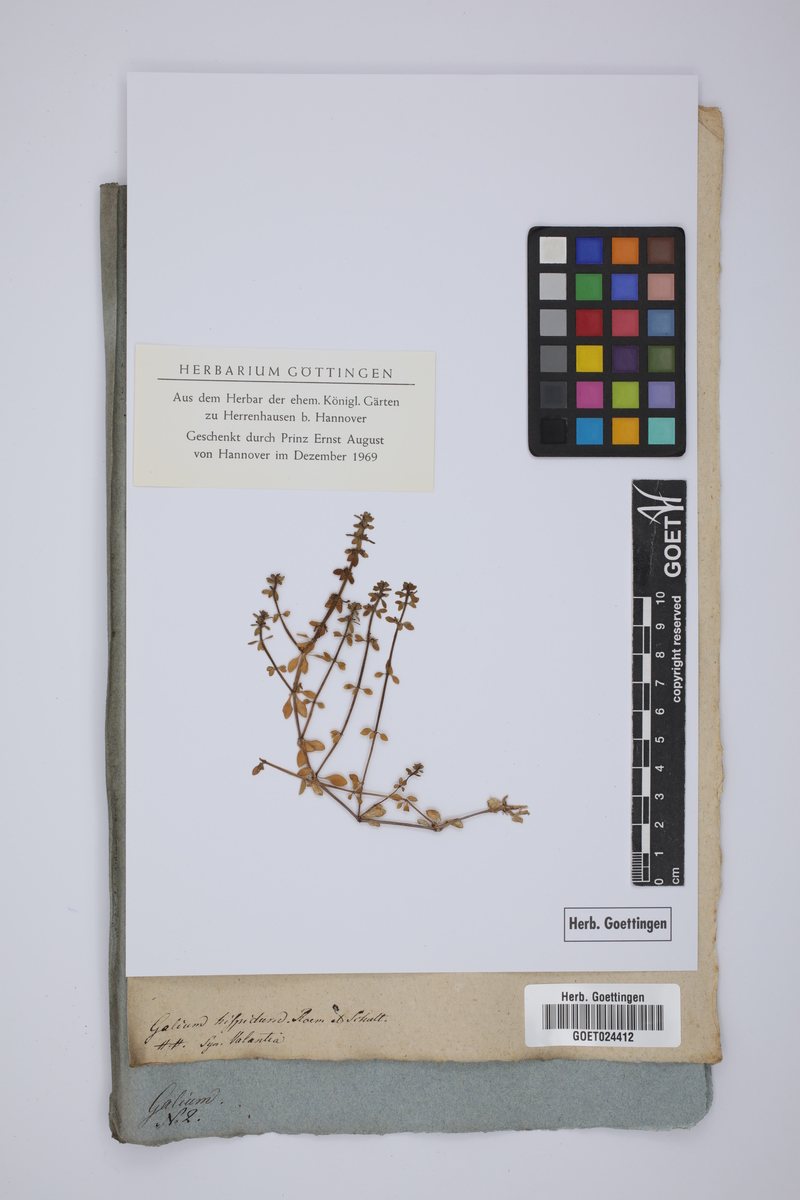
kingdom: Plantae
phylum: Tracheophyta
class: Magnoliopsida
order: Gentianales
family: Rubiaceae
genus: Valantia
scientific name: Valantia hispida
